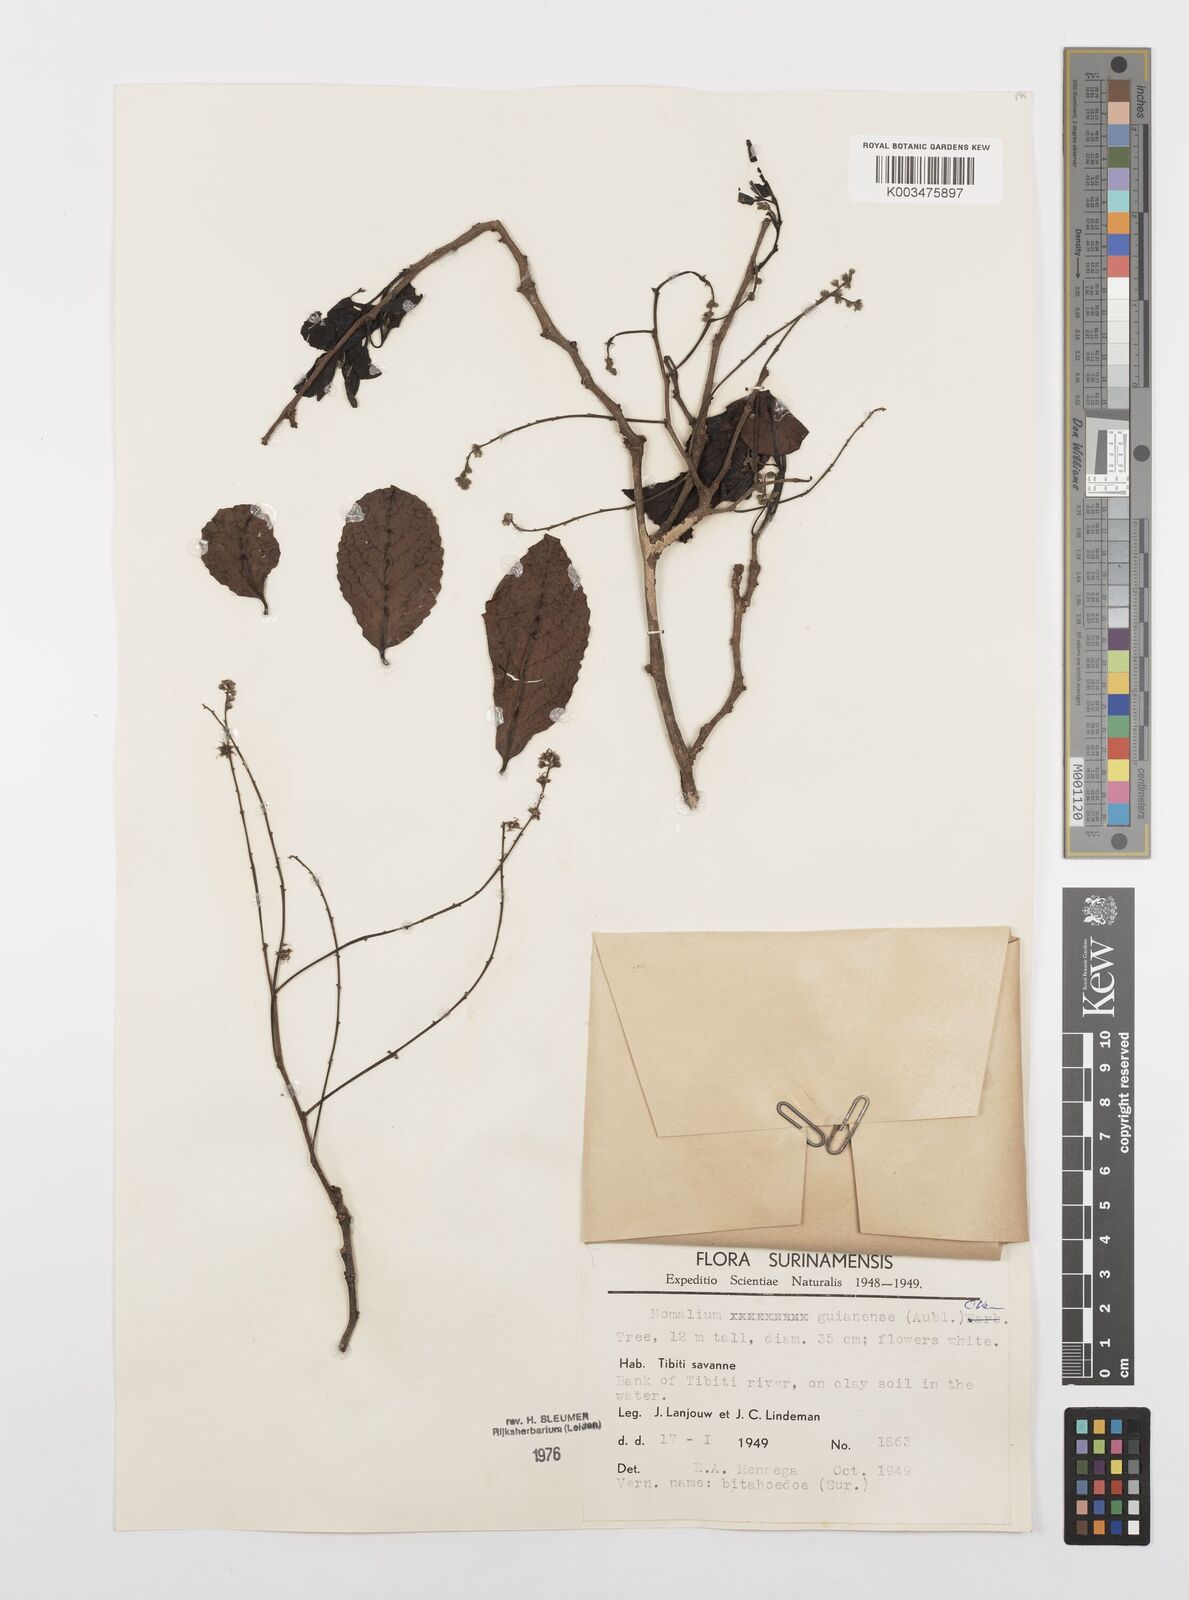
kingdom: Plantae
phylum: Tracheophyta
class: Magnoliopsida
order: Malpighiales
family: Salicaceae
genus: Homalium
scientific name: Homalium guianense
